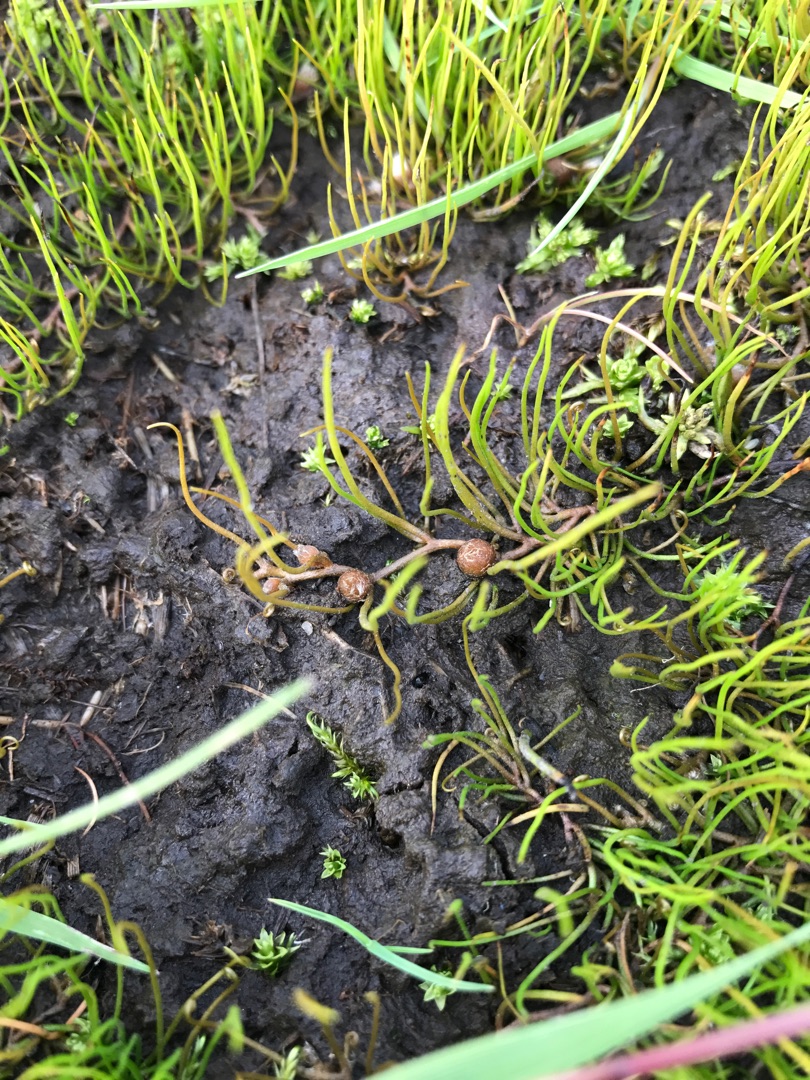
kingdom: Plantae
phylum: Tracheophyta
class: Polypodiopsida
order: Salviniales
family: Marsileaceae
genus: Pilularia
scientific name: Pilularia globulifera
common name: Pilledrager
